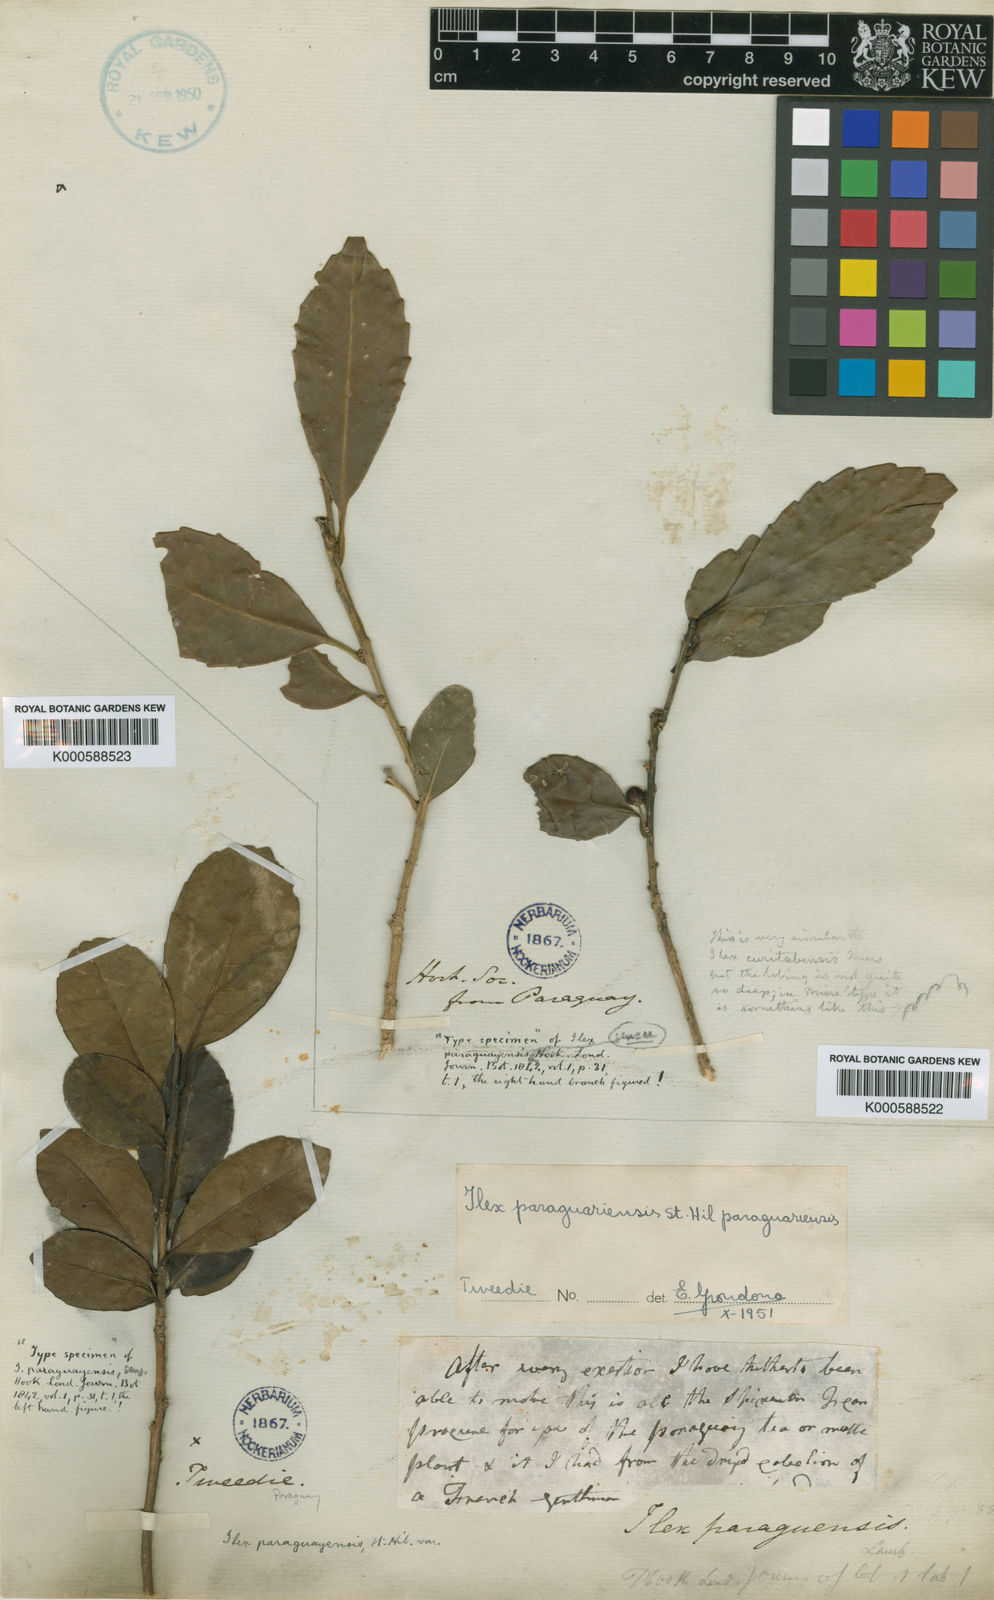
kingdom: Plantae
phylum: Tracheophyta
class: Magnoliopsida
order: Aquifoliales
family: Aquifoliaceae
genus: Ilex
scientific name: Ilex paraguariensis
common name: Paraguay tea
